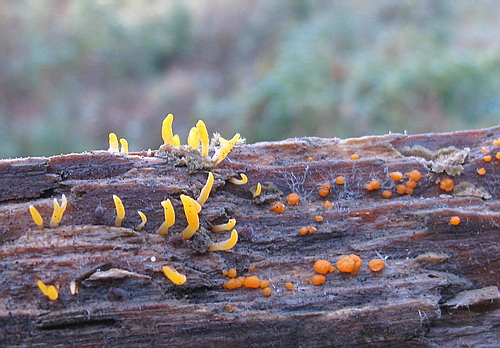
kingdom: Fungi
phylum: Basidiomycota
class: Dacrymycetes
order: Dacrymycetales
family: Dacrymycetaceae
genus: Dacrymyces
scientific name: Dacrymyces stillatus
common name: almindelig tåresvamp
